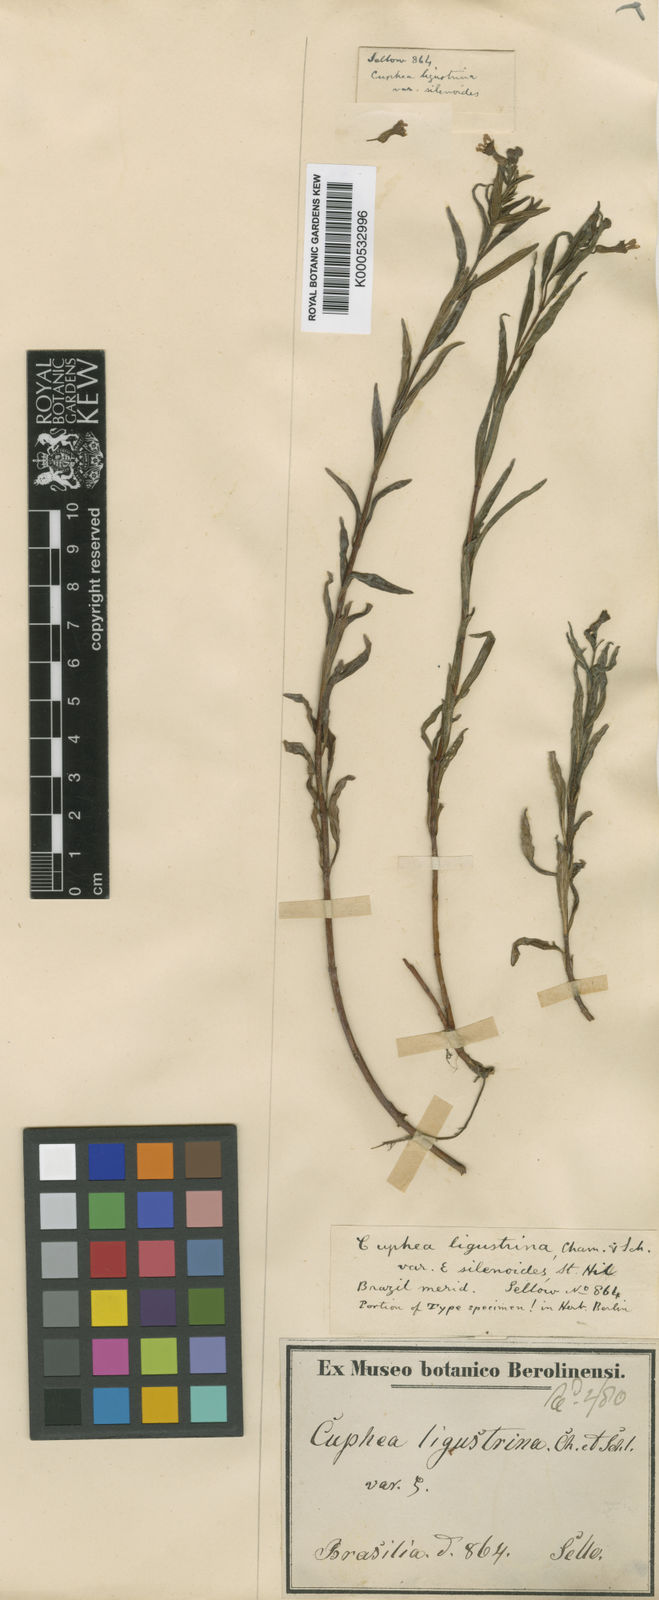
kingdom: Plantae
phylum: Tracheophyta
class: Magnoliopsida
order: Myrtales
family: Lythraceae
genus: Cuphea
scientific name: Cuphea fruticosa
